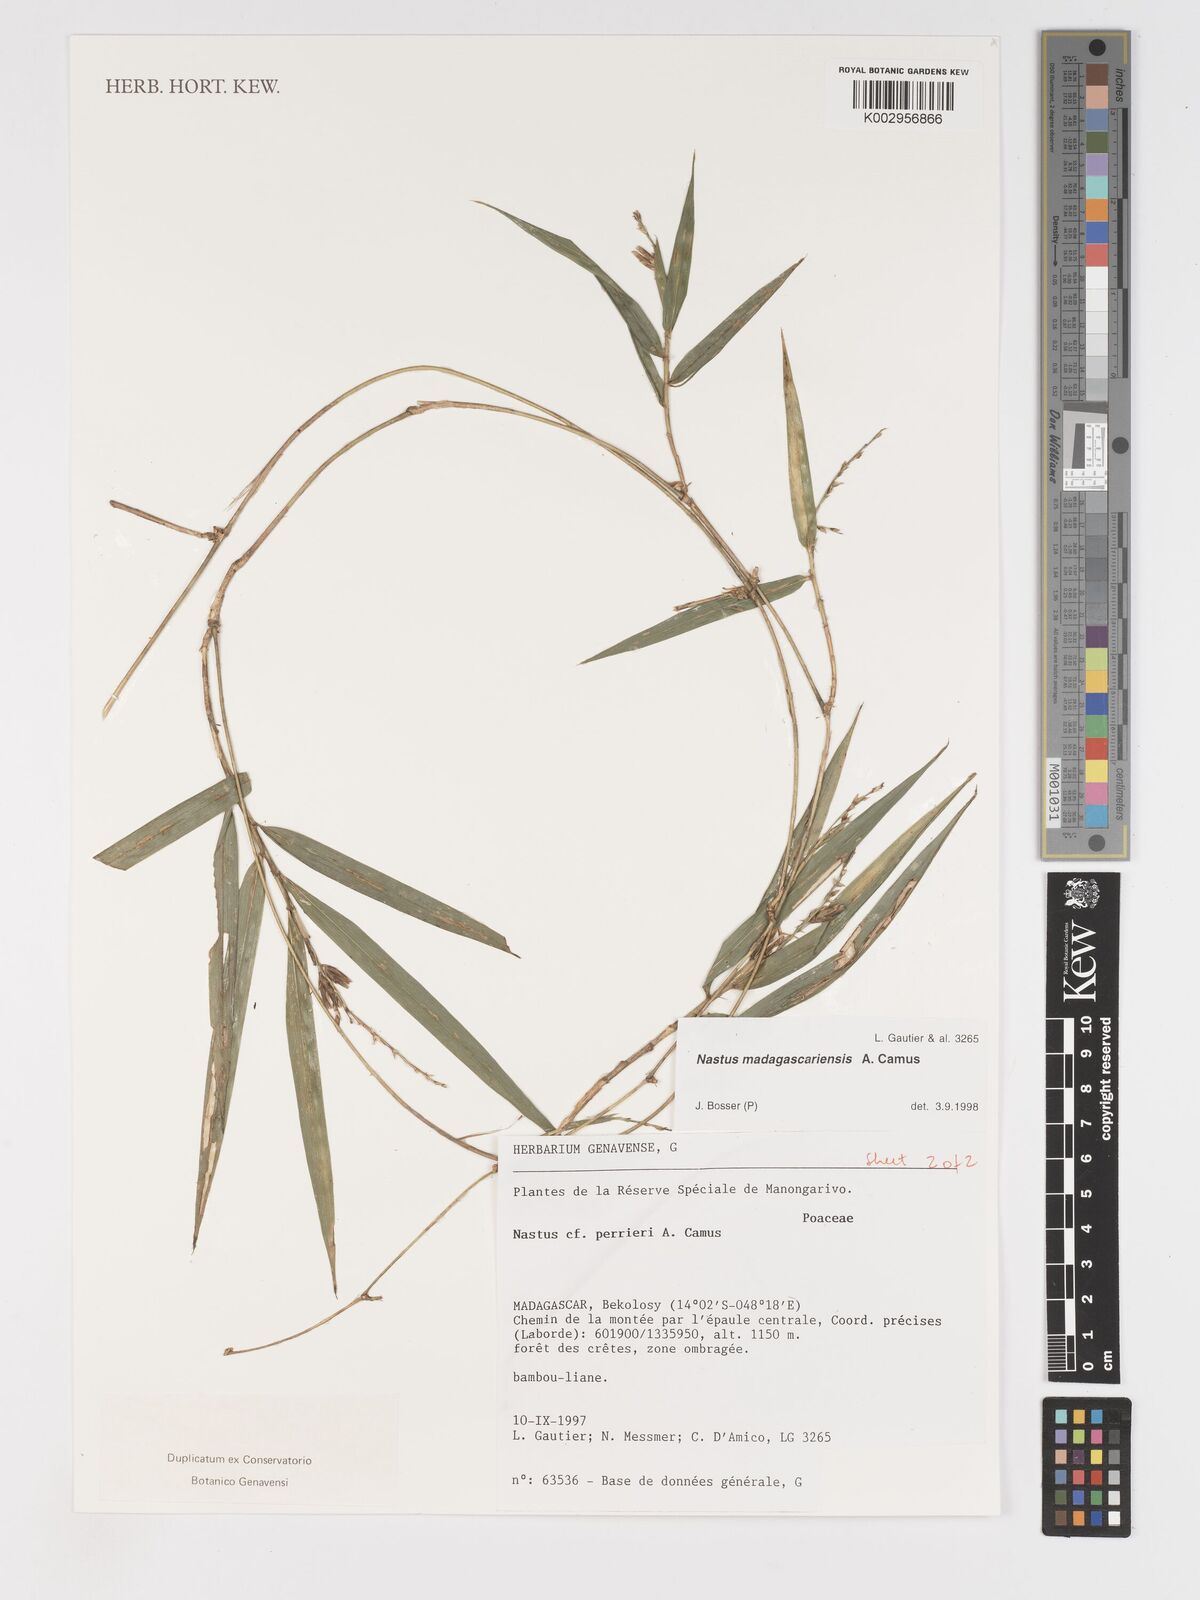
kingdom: Plantae
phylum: Tracheophyta
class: Liliopsida
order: Poales
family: Poaceae
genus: Nastus
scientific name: Nastus madagascariensis
